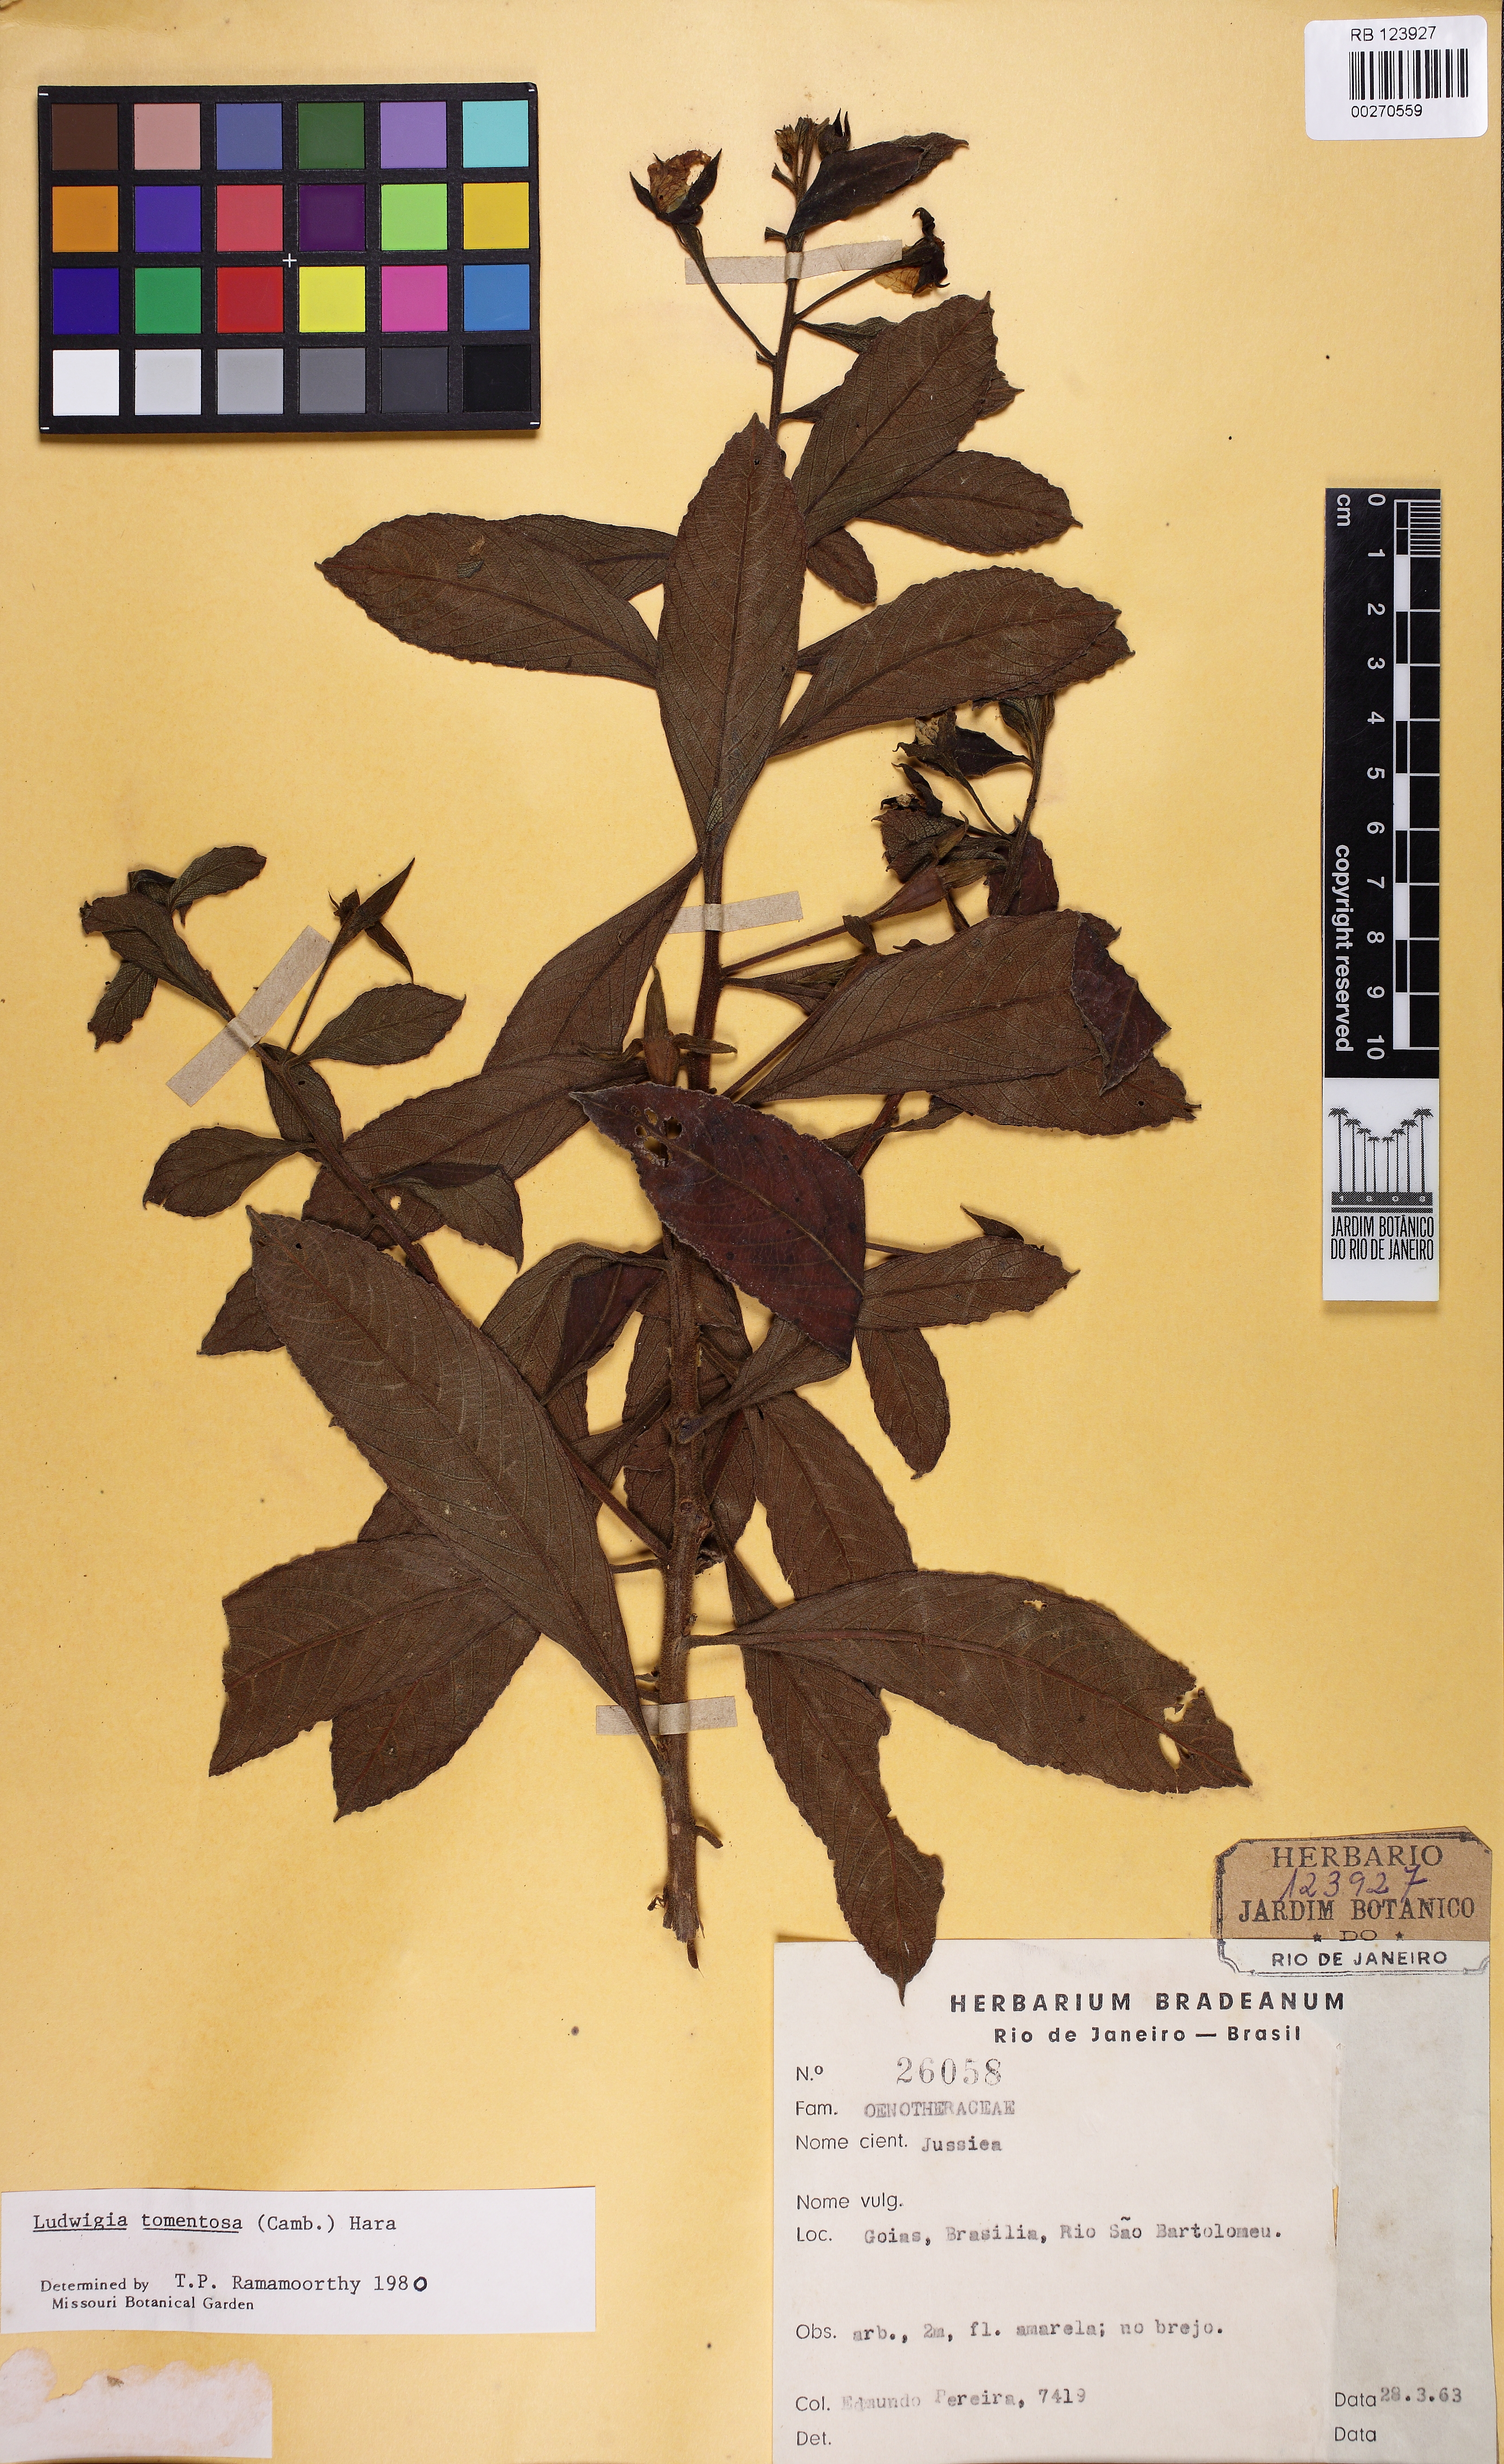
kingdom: Plantae
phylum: Tracheophyta
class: Magnoliopsida
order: Myrtales
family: Onagraceae
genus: Ludwigia
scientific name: Ludwigia tomentosa
